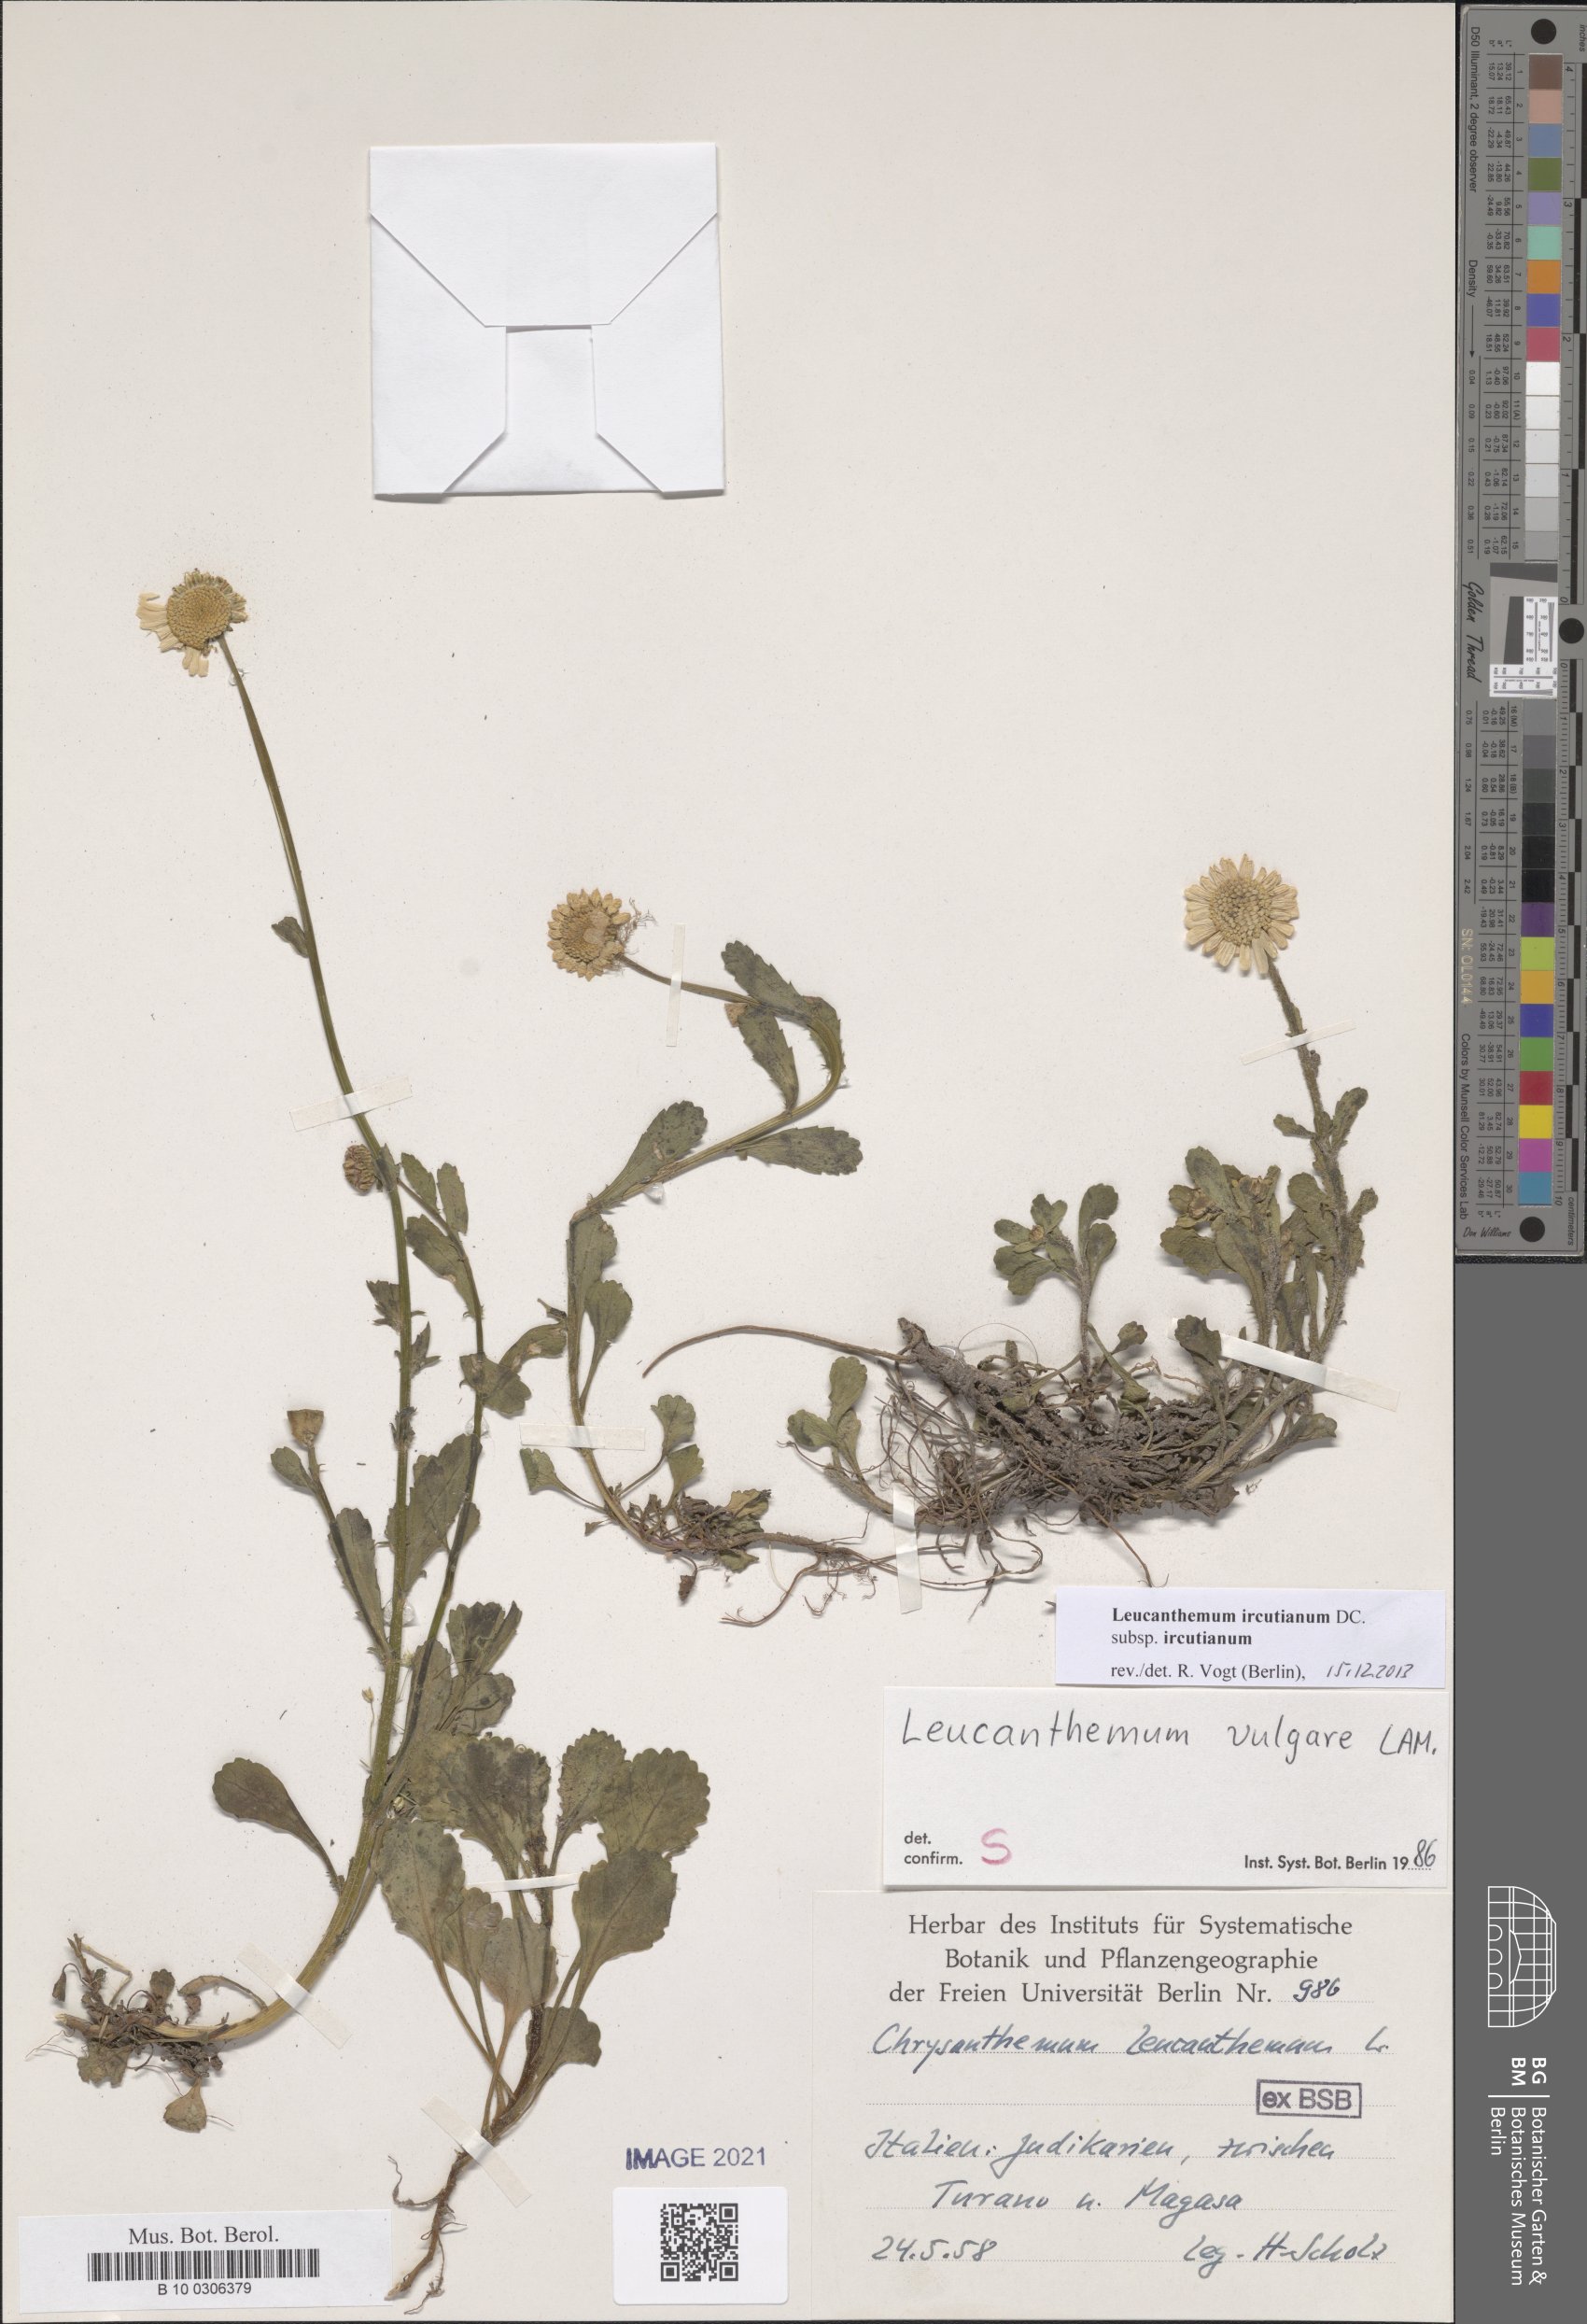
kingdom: Plantae
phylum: Tracheophyta
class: Magnoliopsida
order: Asterales
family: Asteraceae
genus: Leucanthemum
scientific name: Leucanthemum ircutianum
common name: Daisy
